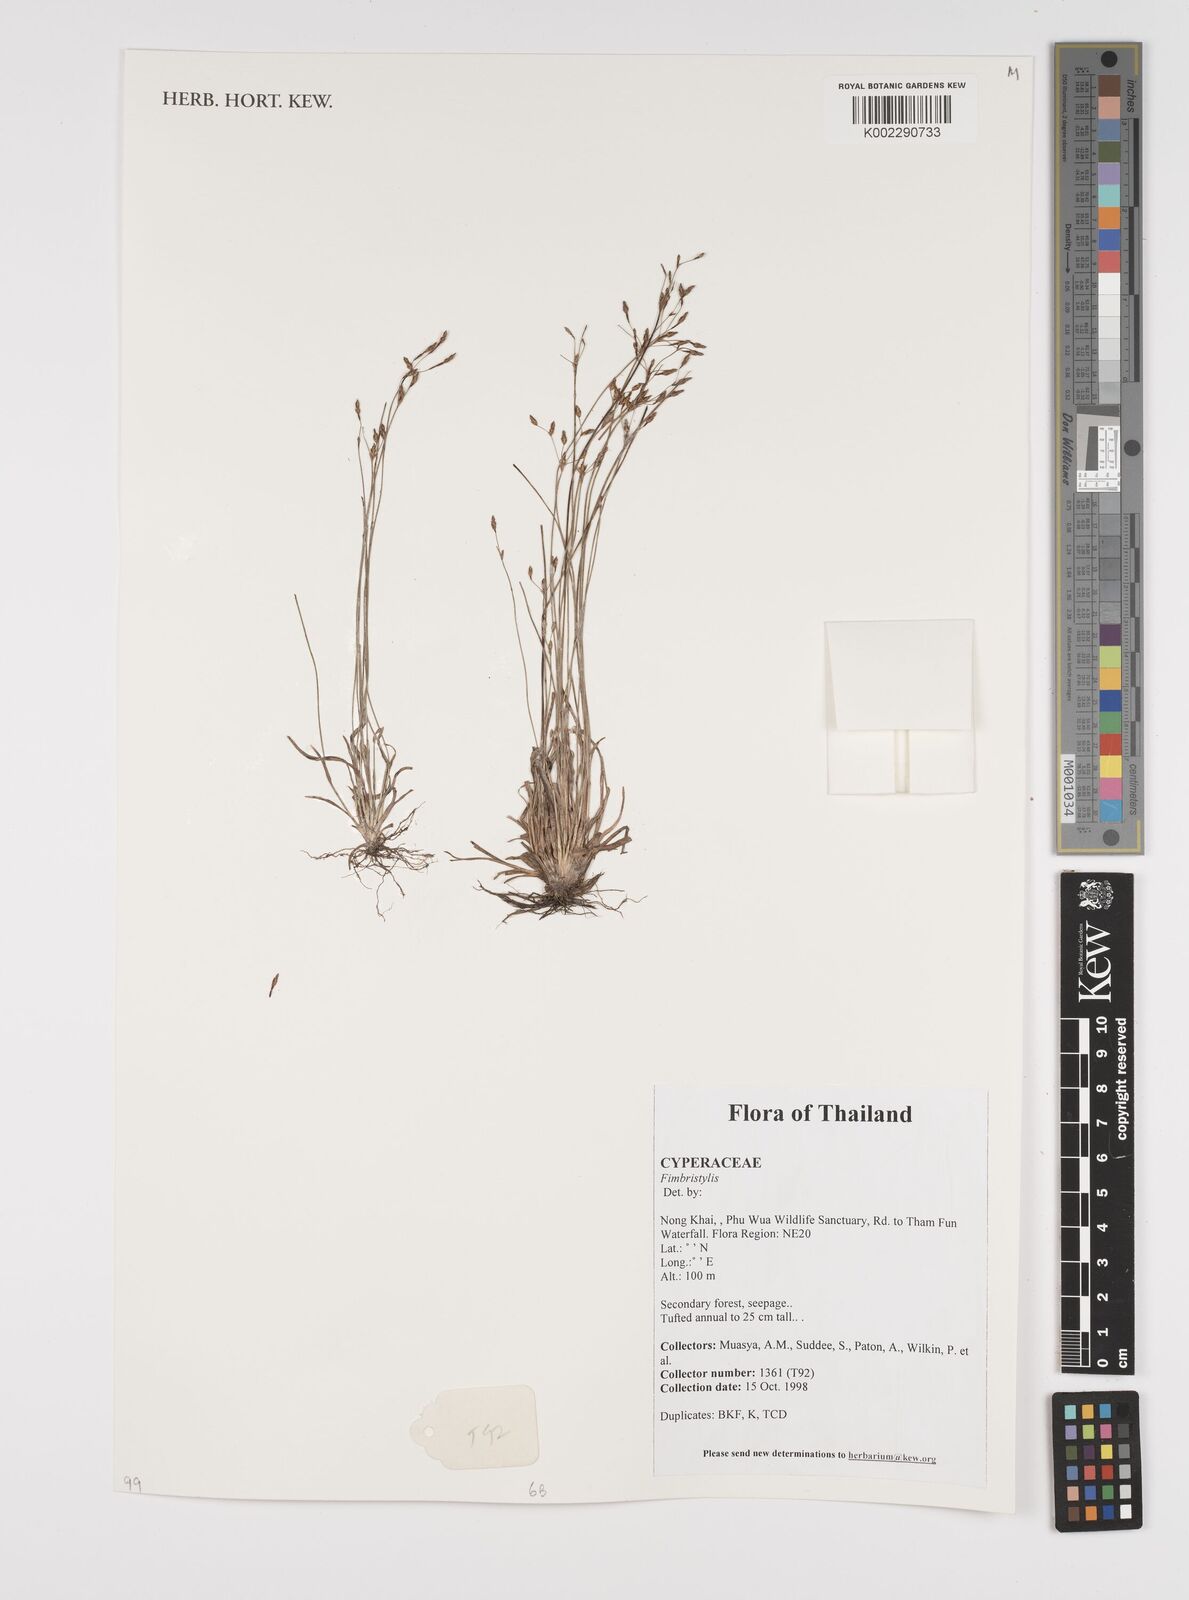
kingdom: Plantae
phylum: Tracheophyta
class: Liliopsida
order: Poales
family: Cyperaceae
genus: Fimbristylis
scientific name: Fimbristylis
